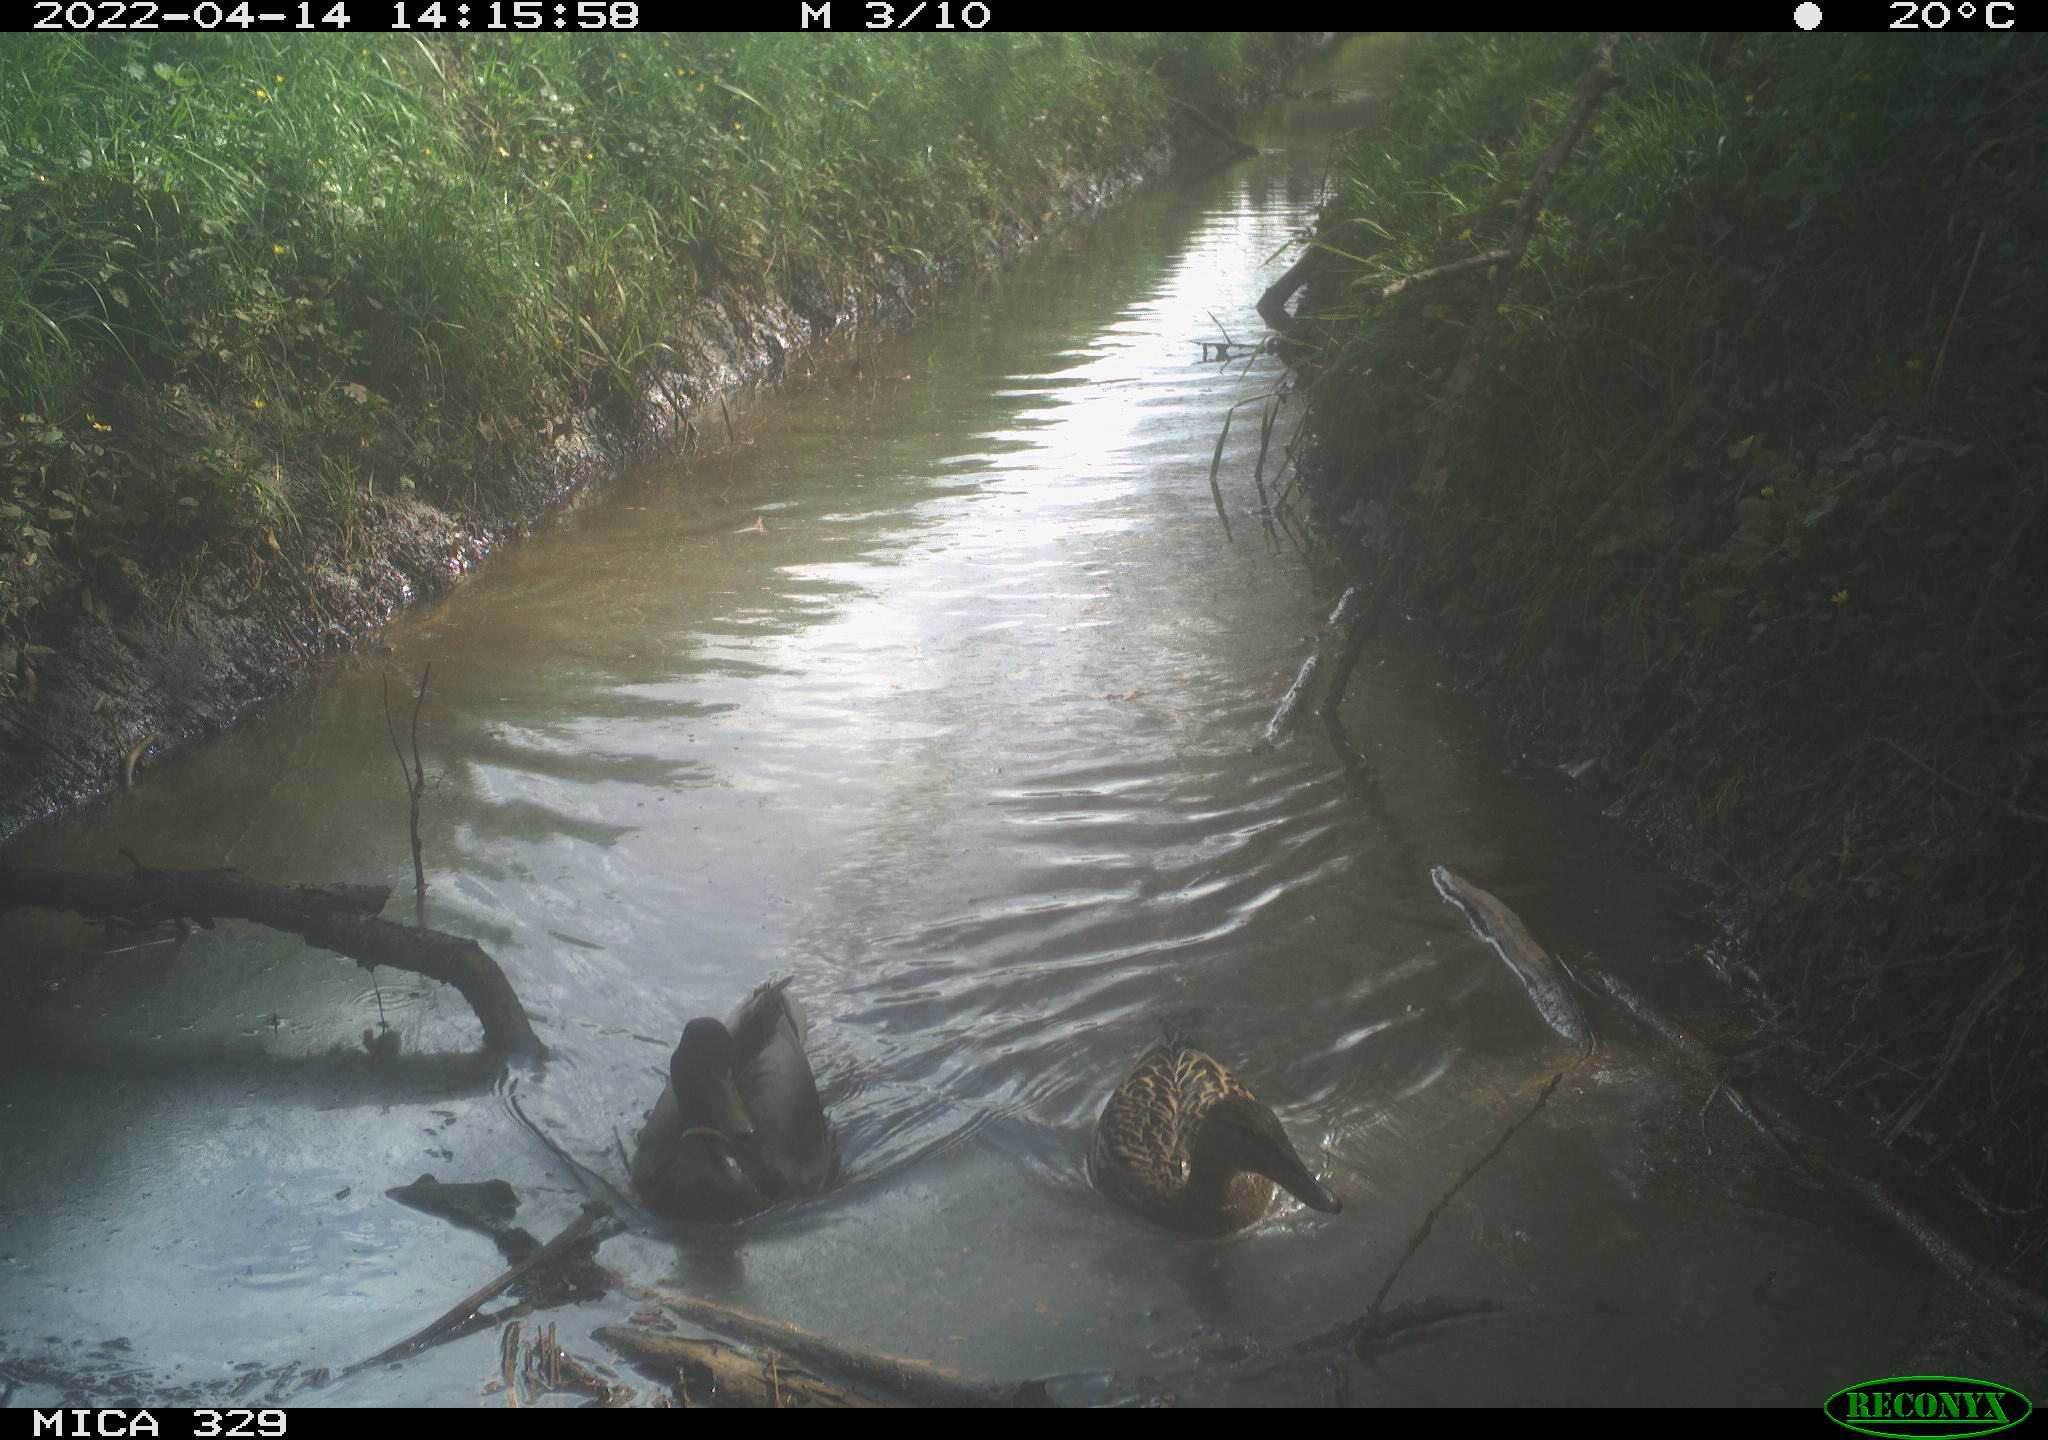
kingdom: Animalia
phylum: Chordata
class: Aves
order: Anseriformes
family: Anatidae
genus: Anas
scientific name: Anas platyrhynchos
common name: Mallard
